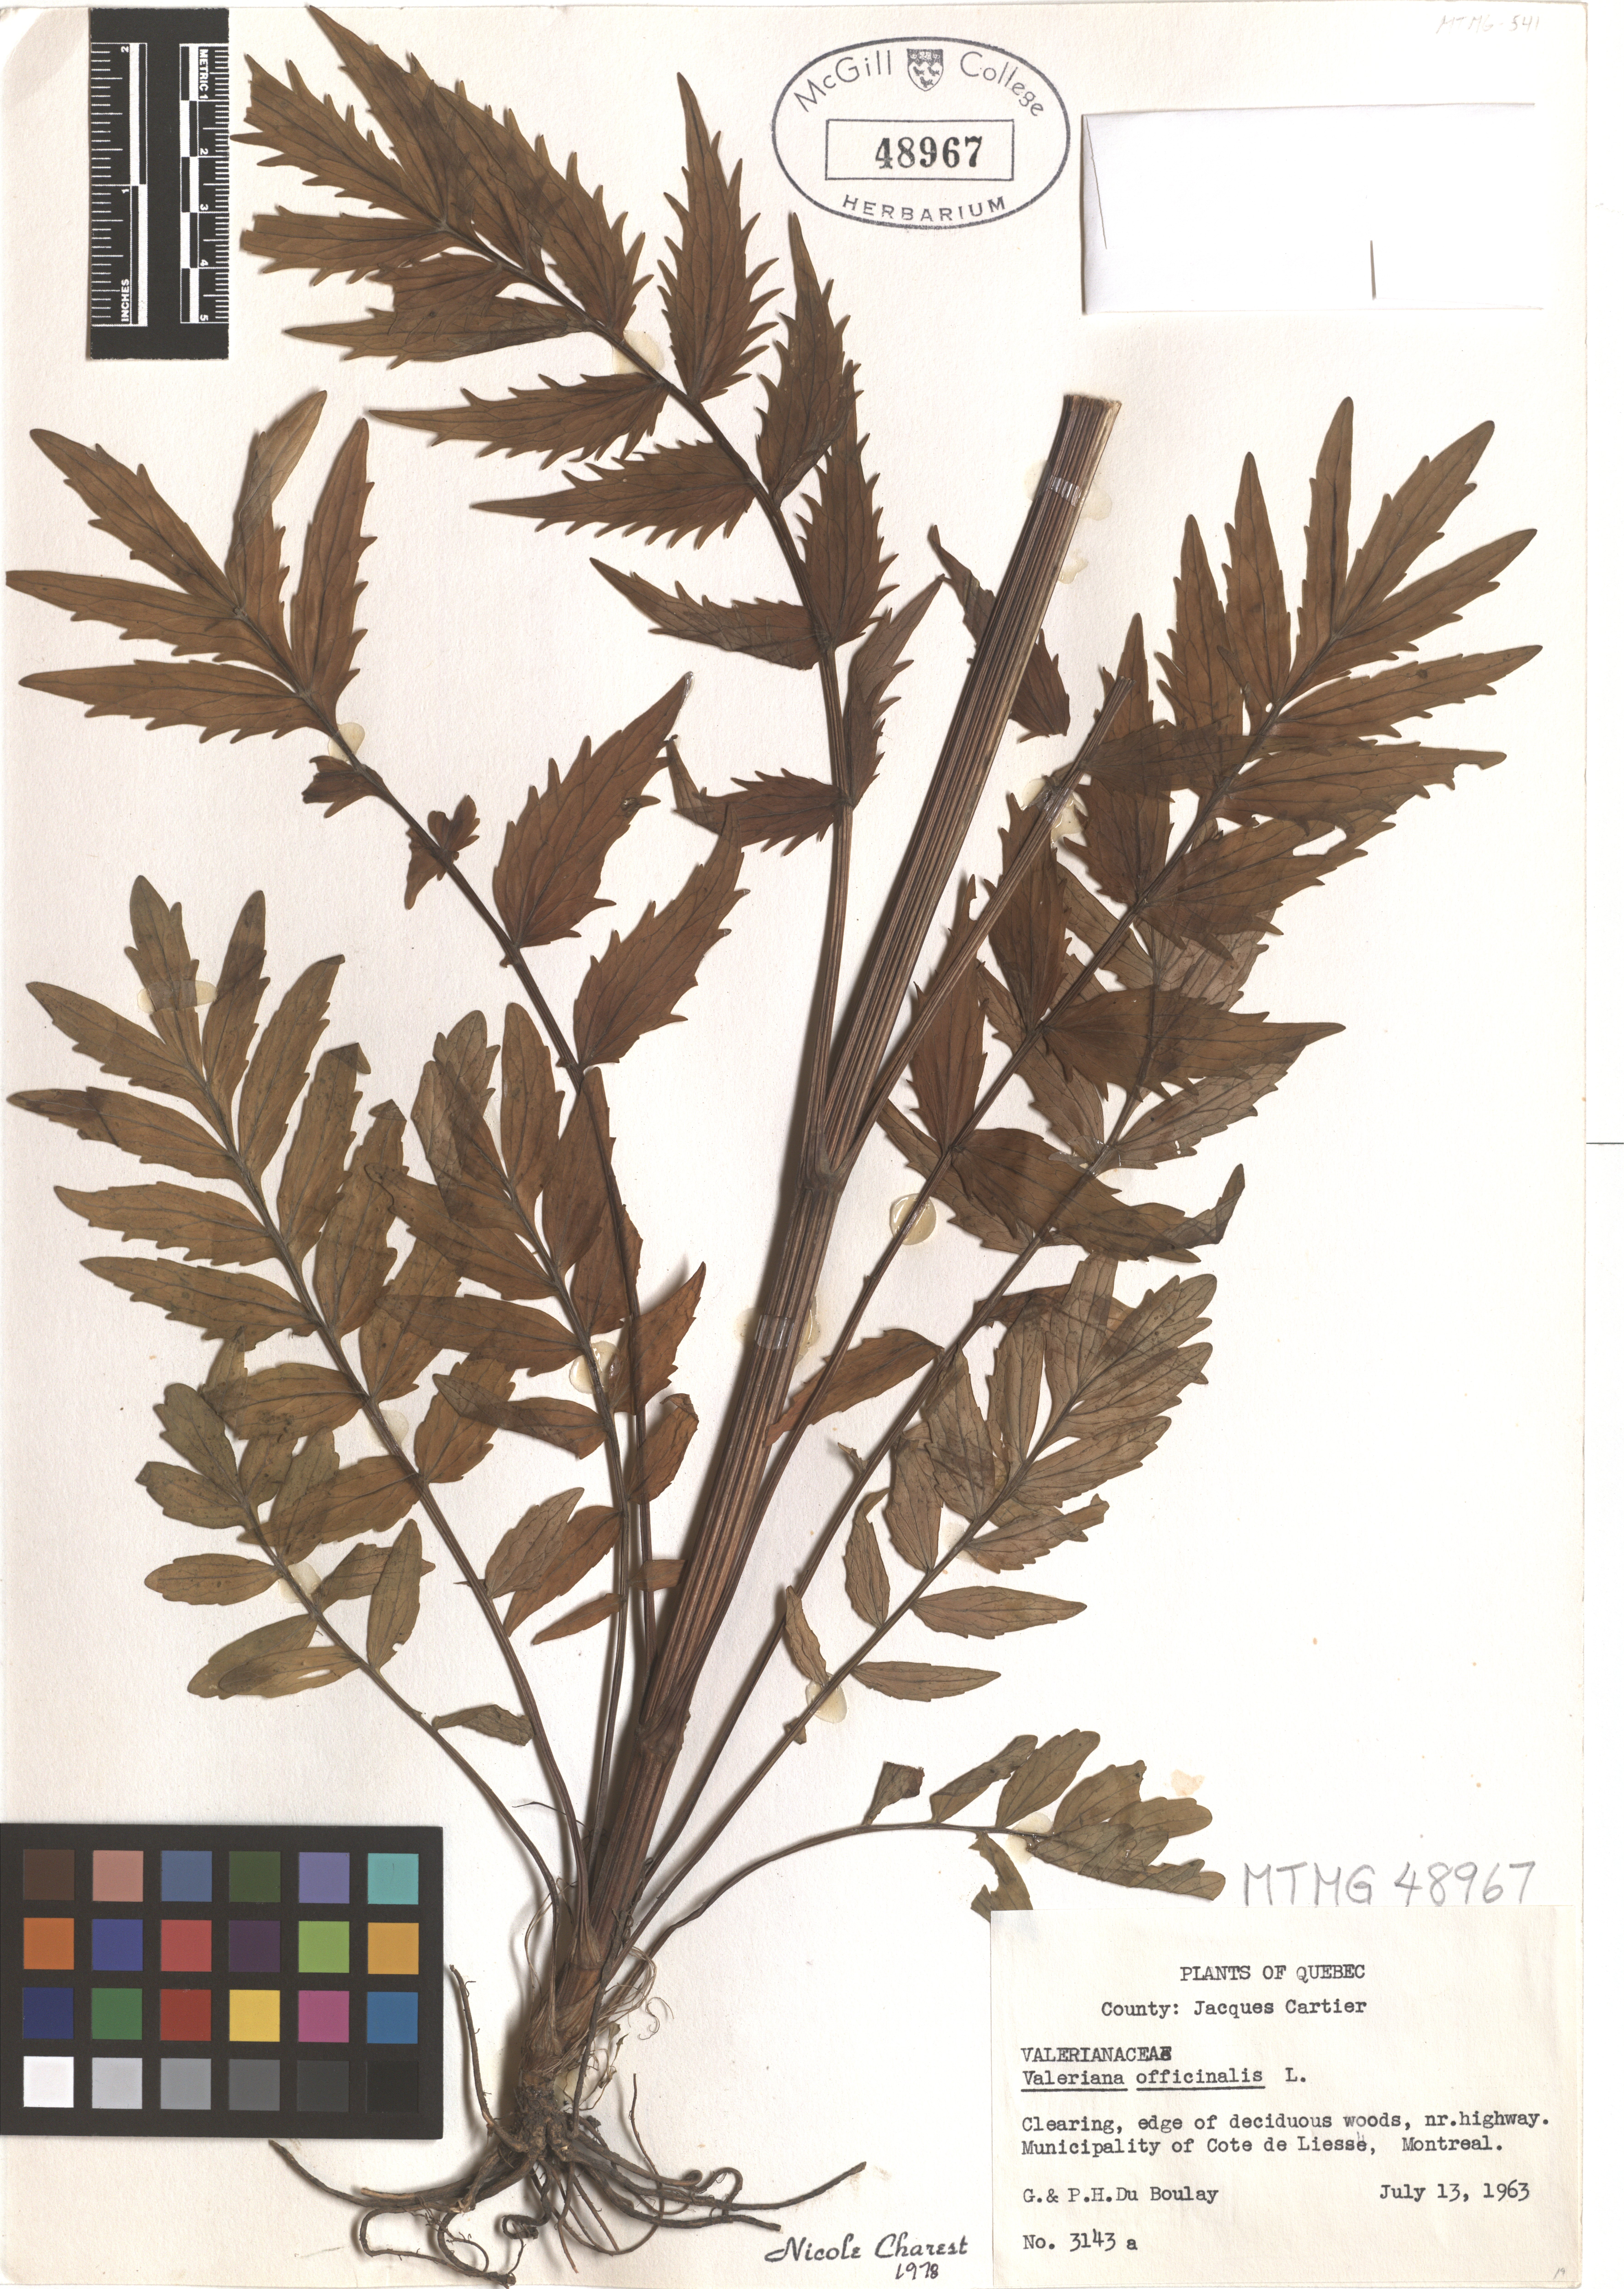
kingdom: Plantae
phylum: Tracheophyta
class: Magnoliopsida
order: Dipsacales
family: Caprifoliaceae
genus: Valeriana
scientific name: Valeriana officinalis
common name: Common valerian
